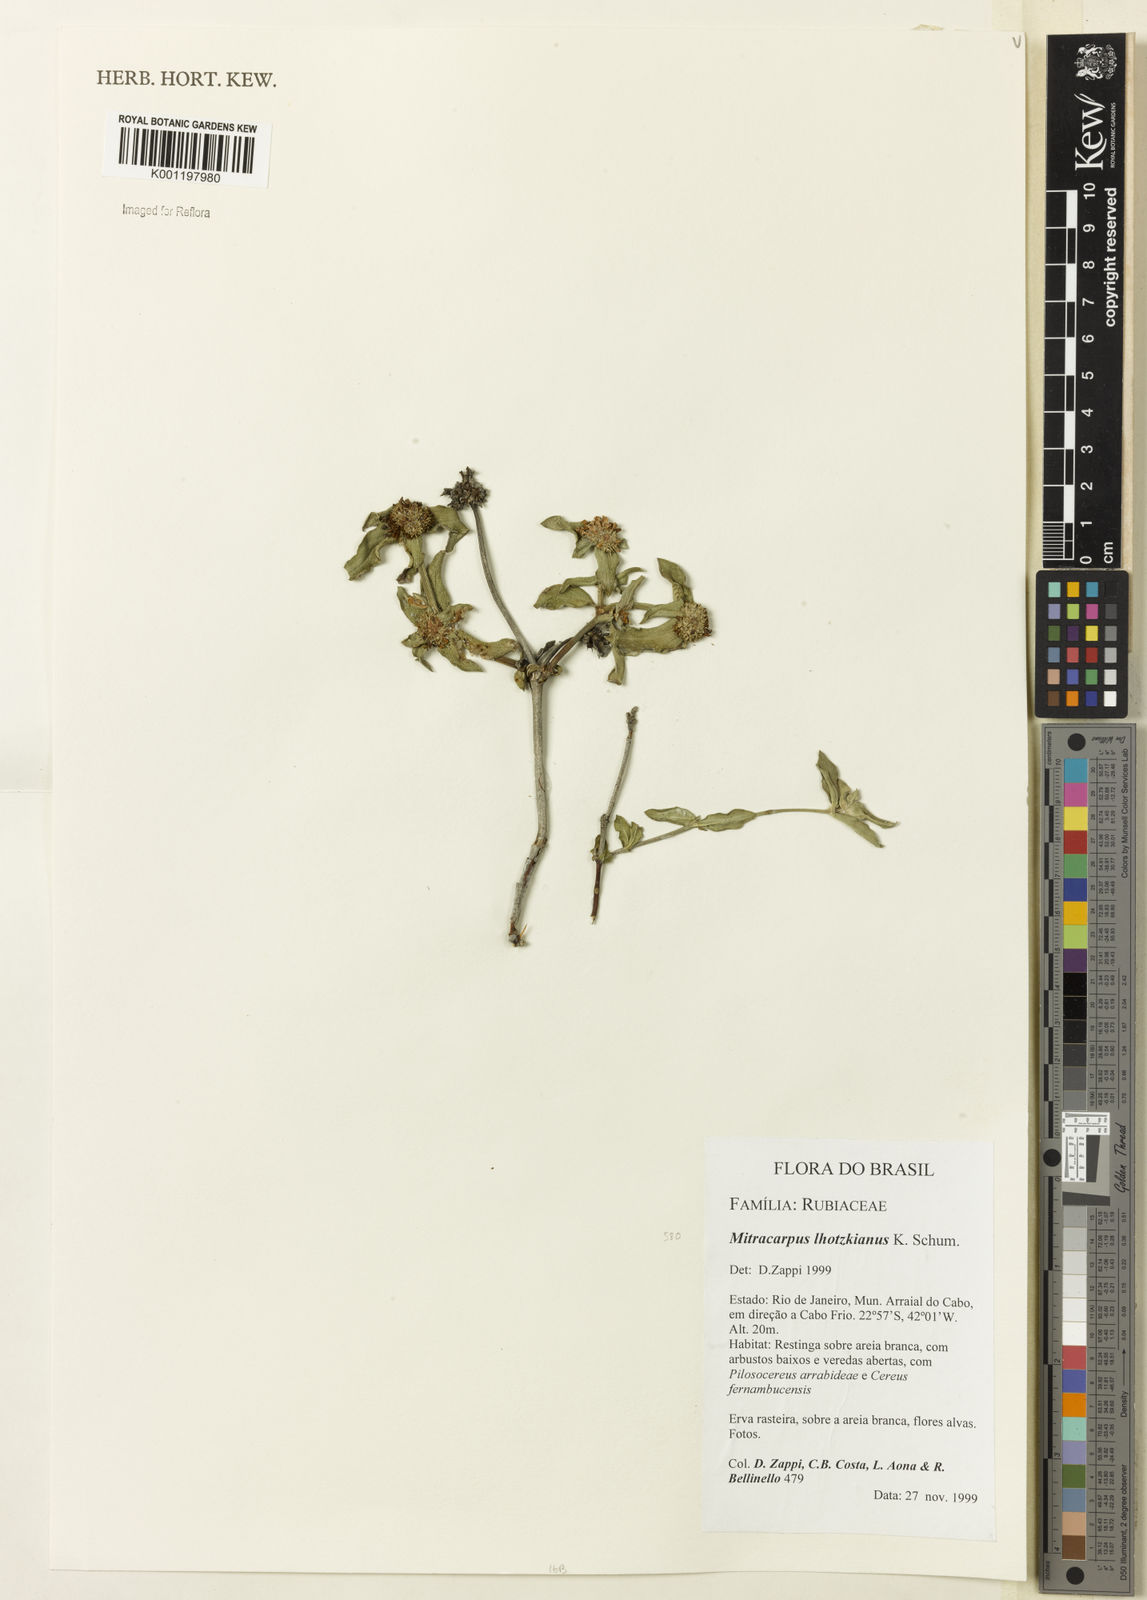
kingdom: Plantae
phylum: Tracheophyta
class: Magnoliopsida
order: Gentianales
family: Rubiaceae
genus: Palicourea
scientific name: Palicourea dichotoma
